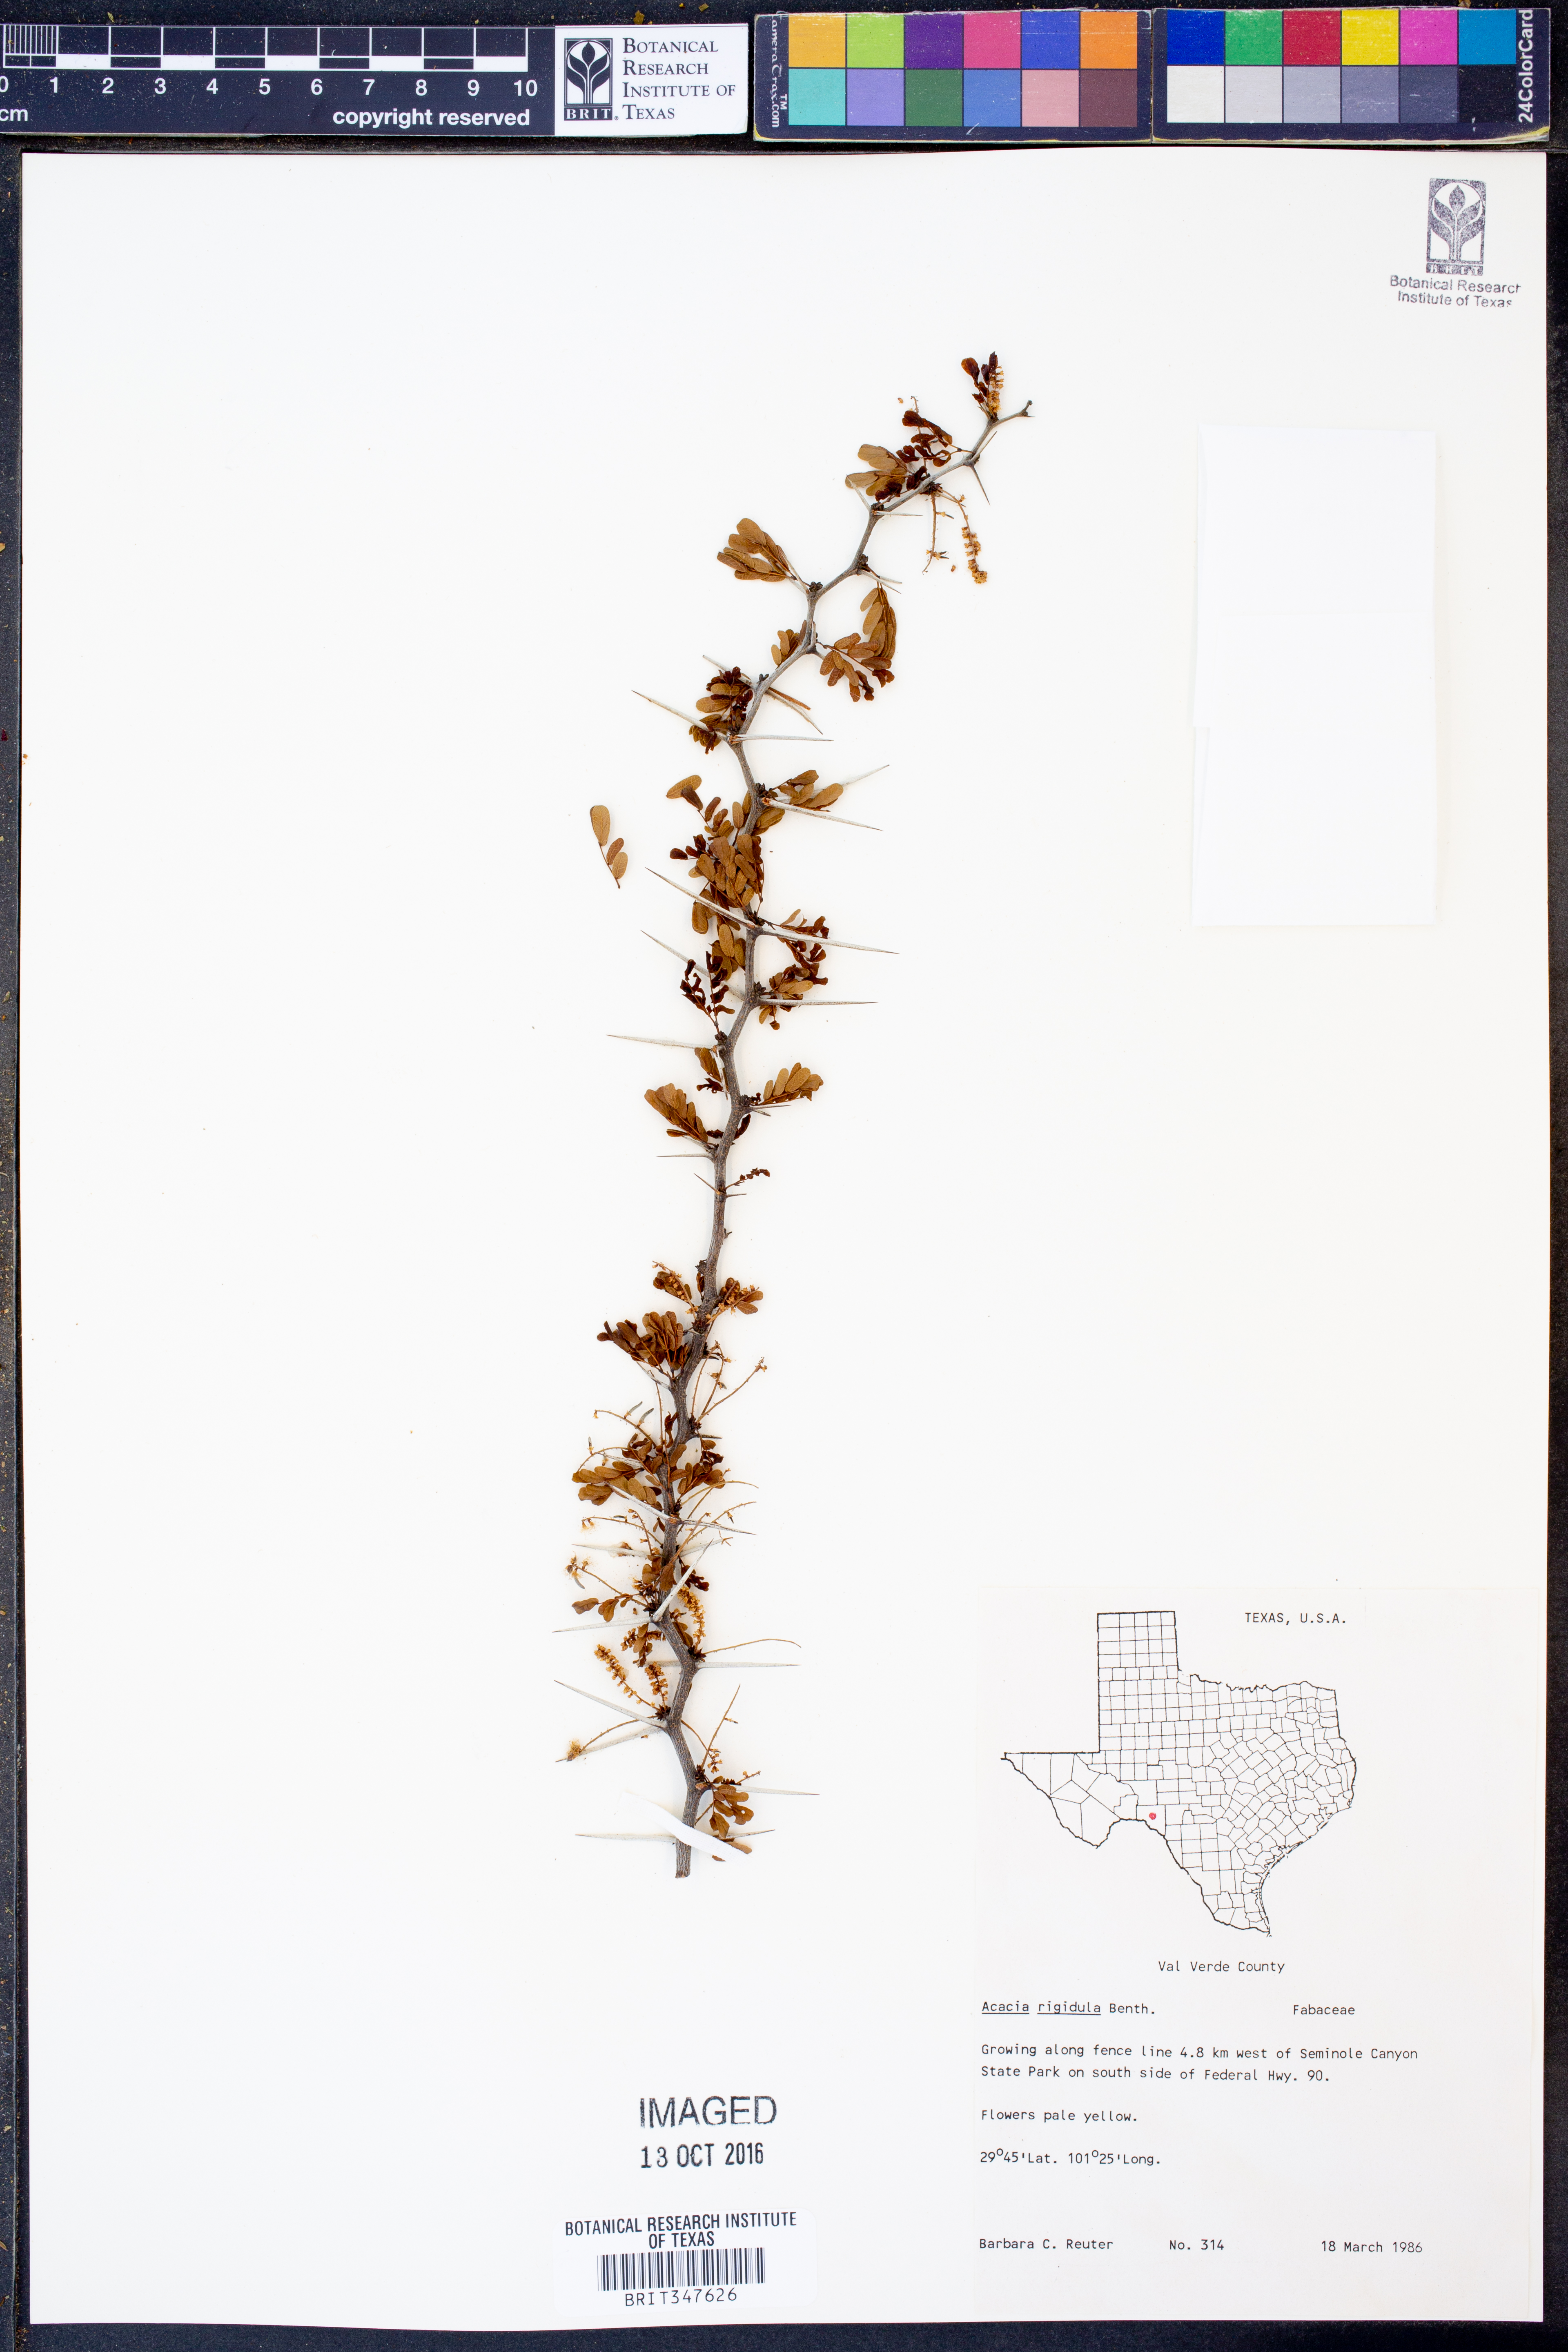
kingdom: Plantae
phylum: Tracheophyta
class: Magnoliopsida
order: Fabales
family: Fabaceae
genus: Vachellia
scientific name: Vachellia rigidula
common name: Blackbrush
